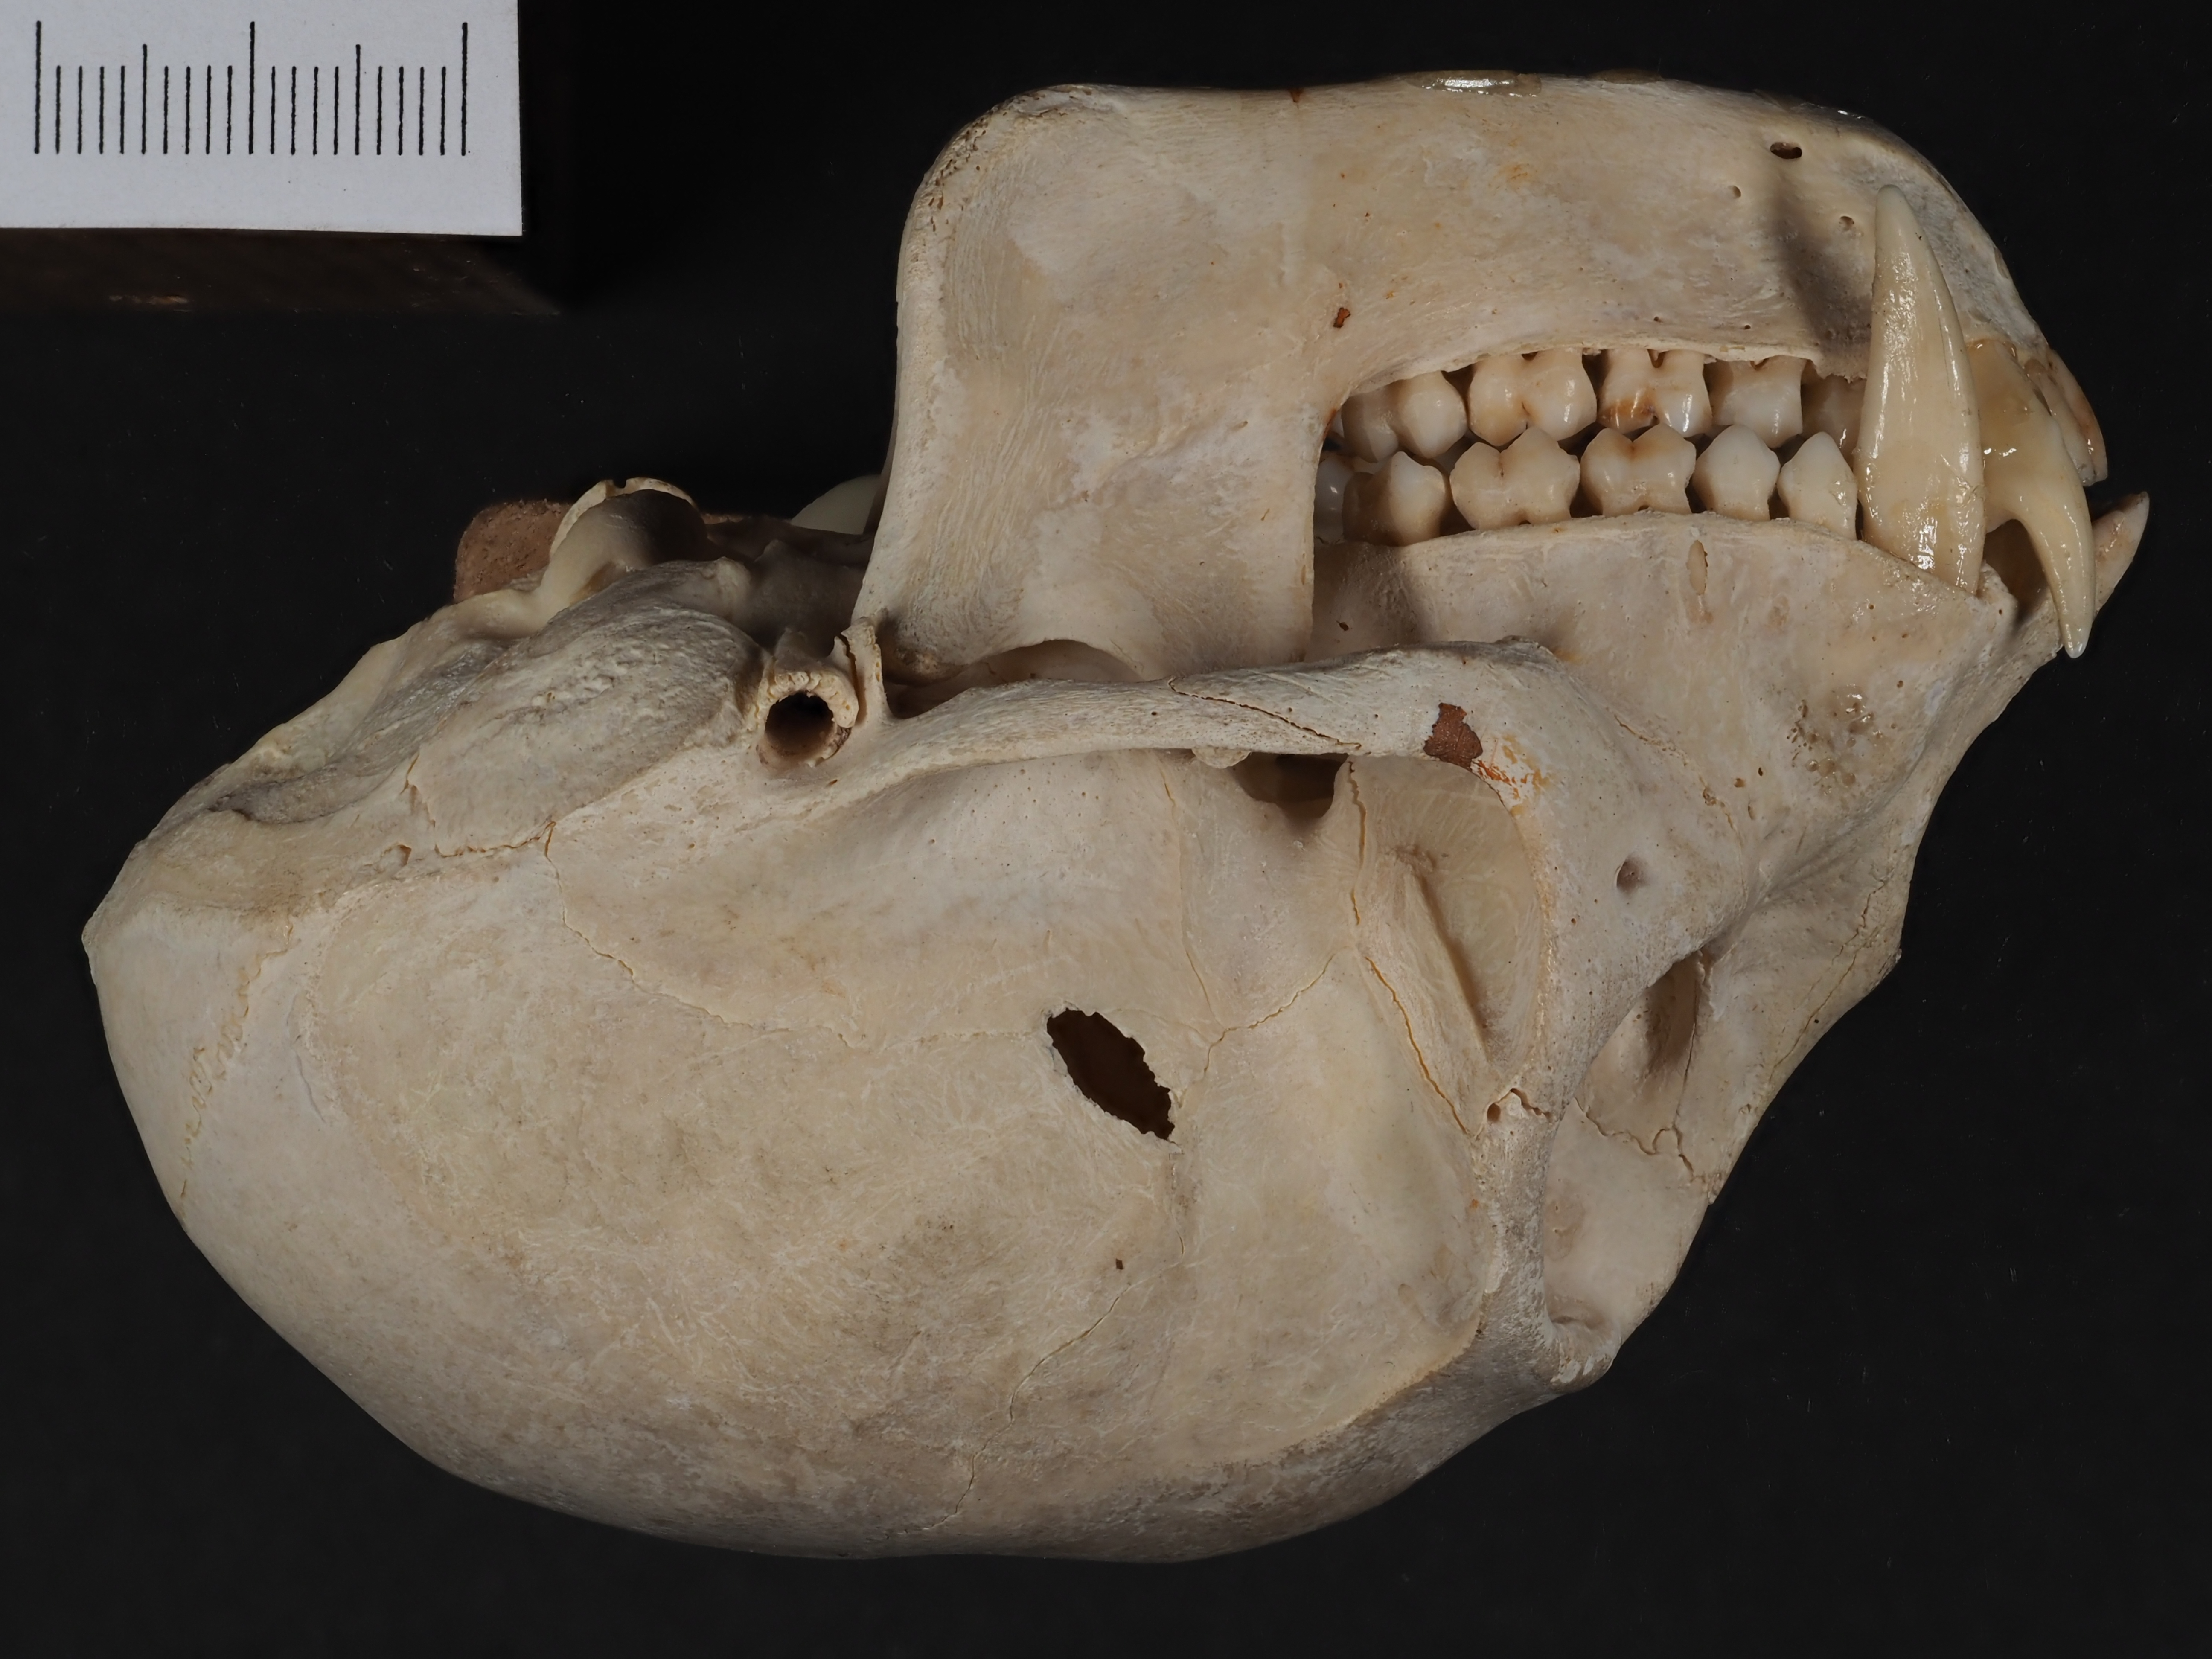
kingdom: Animalia
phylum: Chordata
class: Mammalia
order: Primates
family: Cercopithecidae
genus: Cercopithecus
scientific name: Cercopithecus cephus
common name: Moustached guenon
